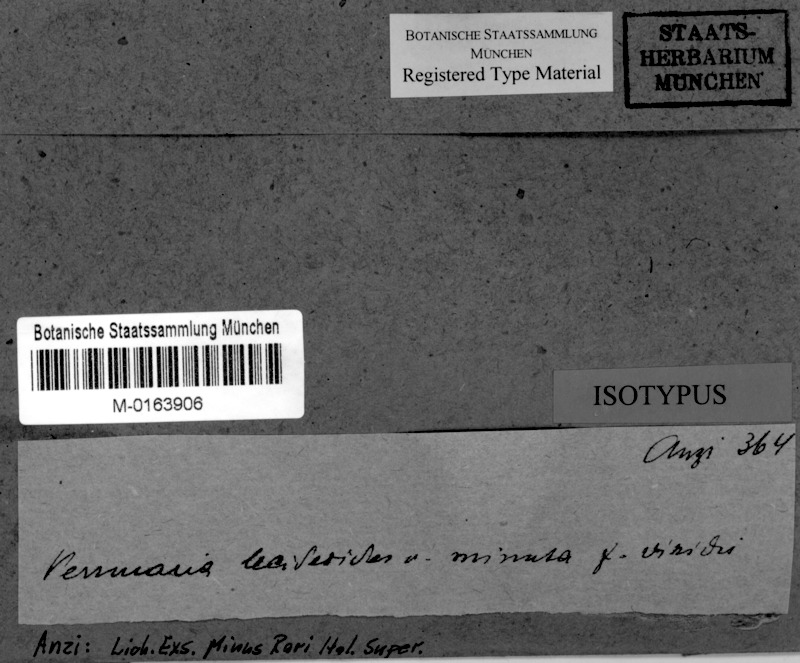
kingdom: Fungi
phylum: Ascomycota
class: Eurotiomycetes
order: Verrucariales
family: Verrucariaceae
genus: Verruculopsis
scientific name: Verruculopsis lecideoides
